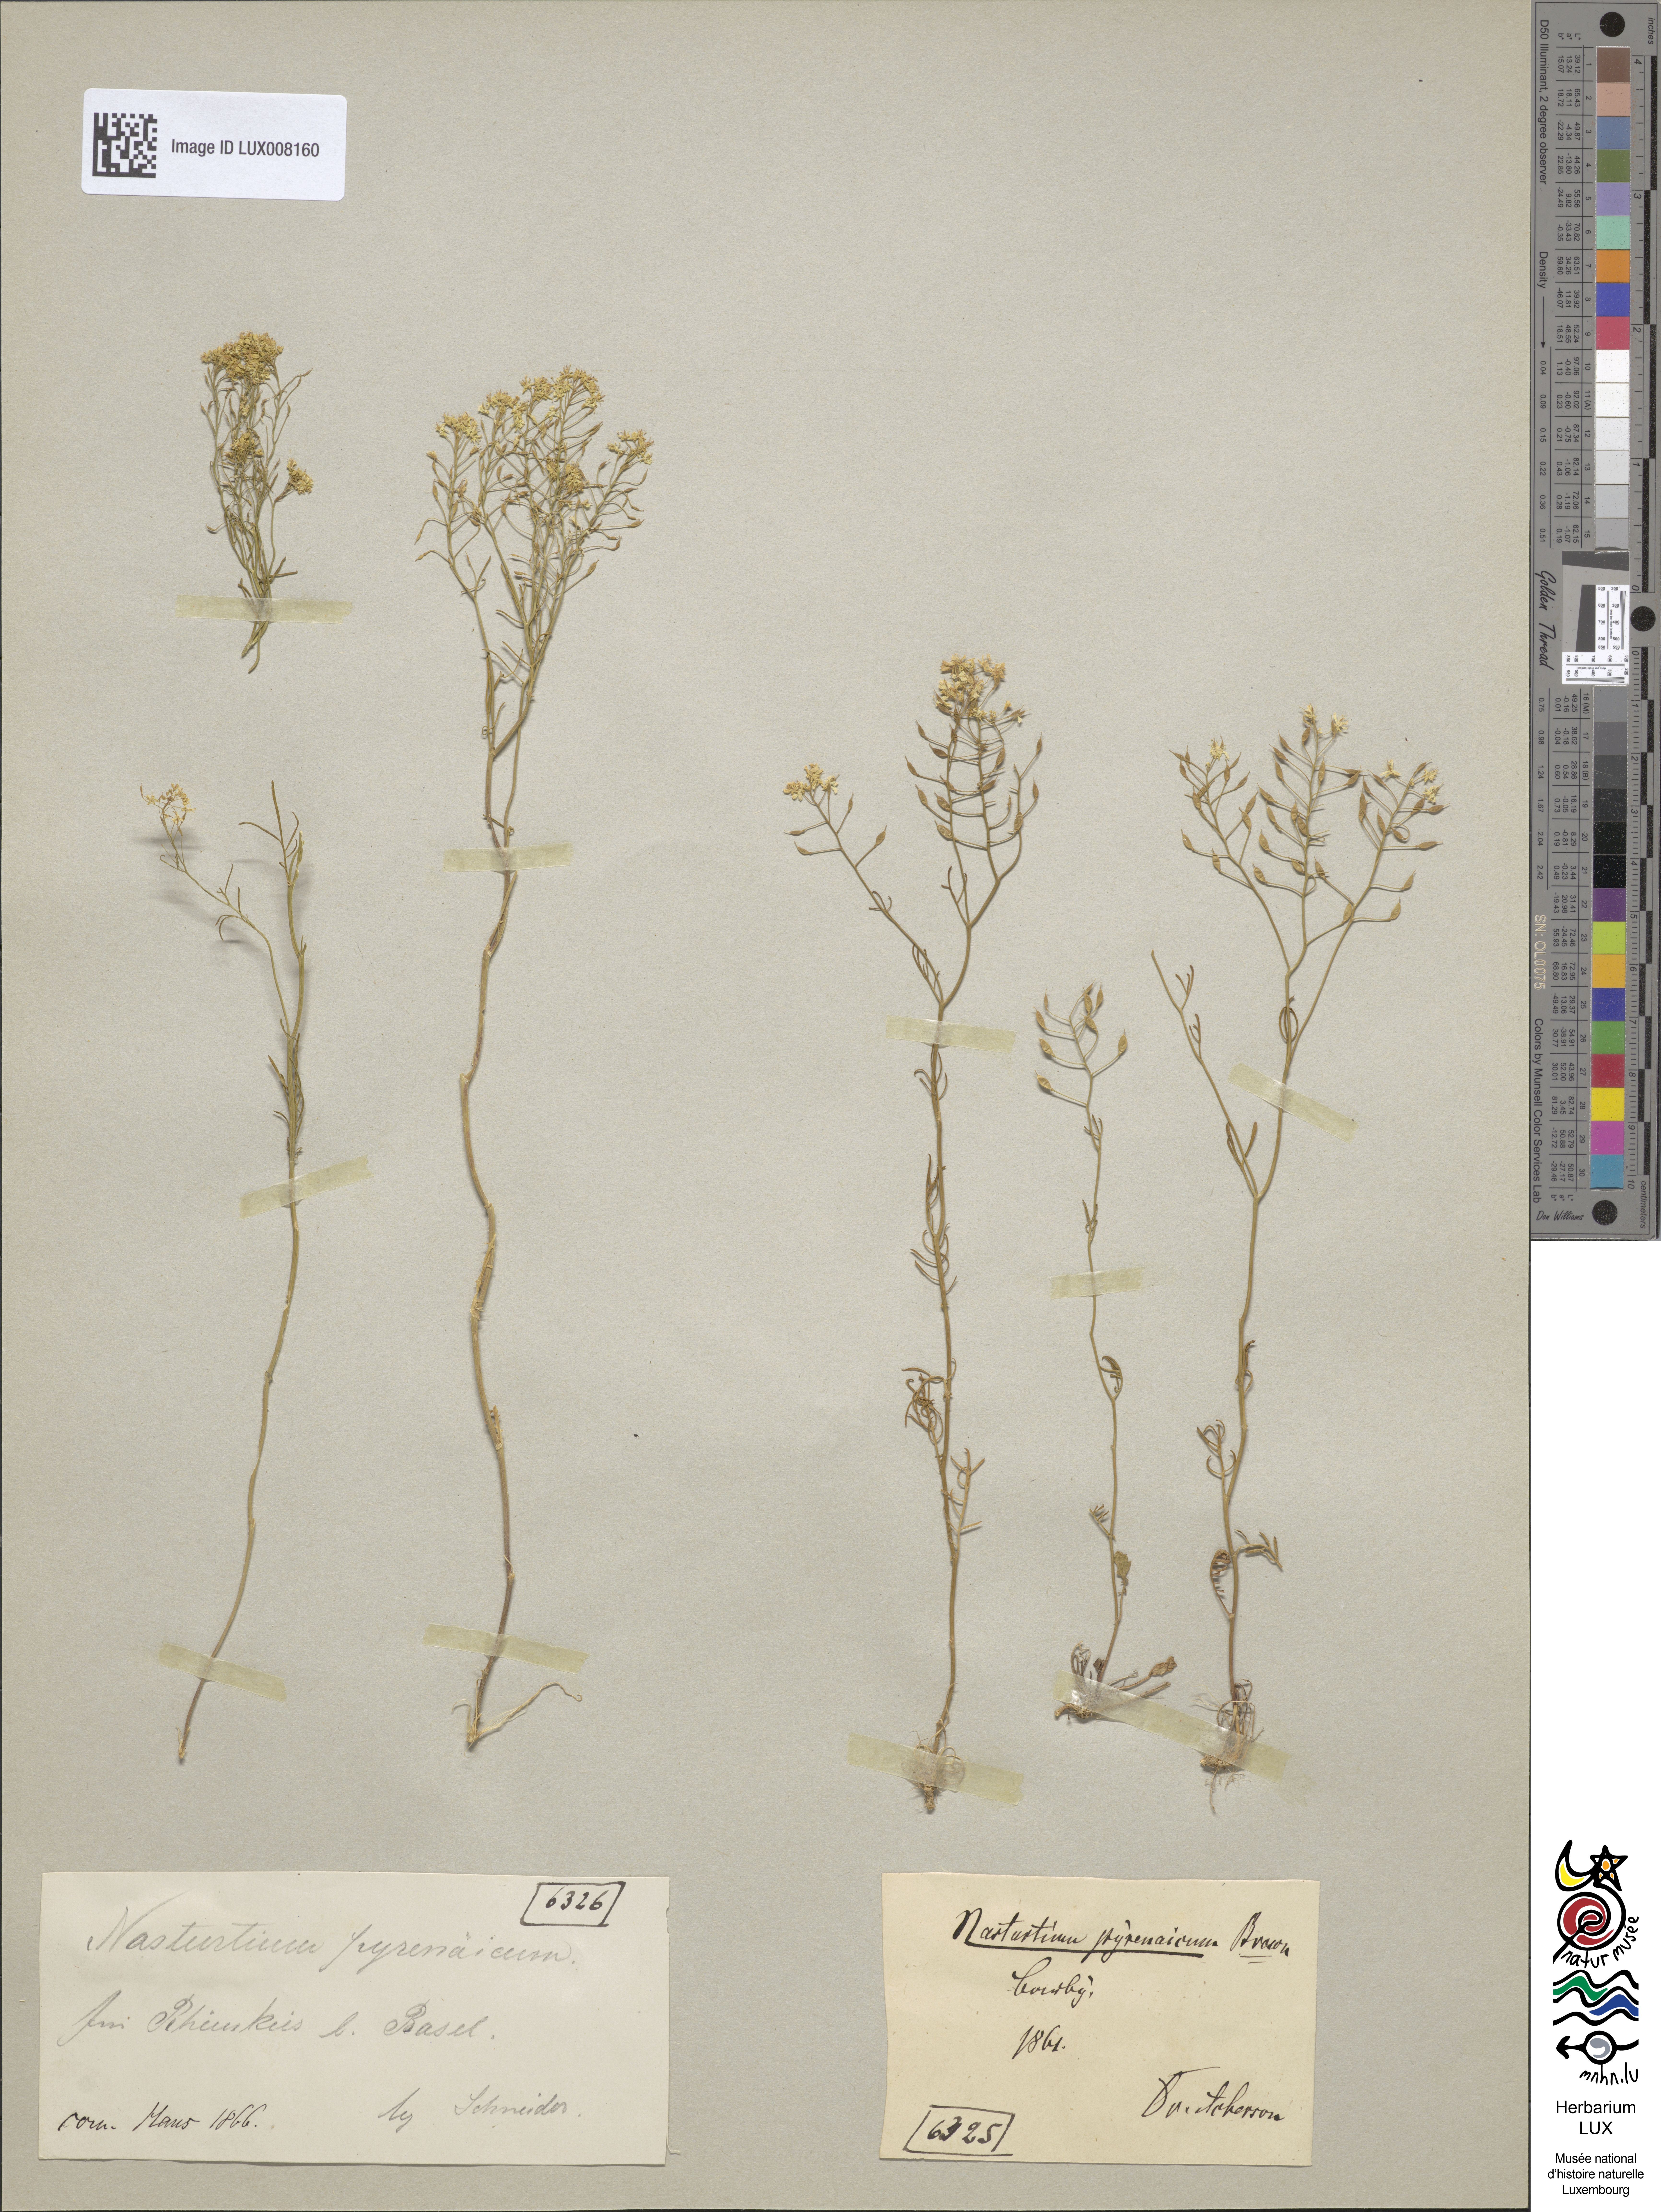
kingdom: Plantae
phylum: Tracheophyta
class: Magnoliopsida
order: Brassicales
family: Brassicaceae
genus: Rorippa
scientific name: Rorippa pyrenaica
